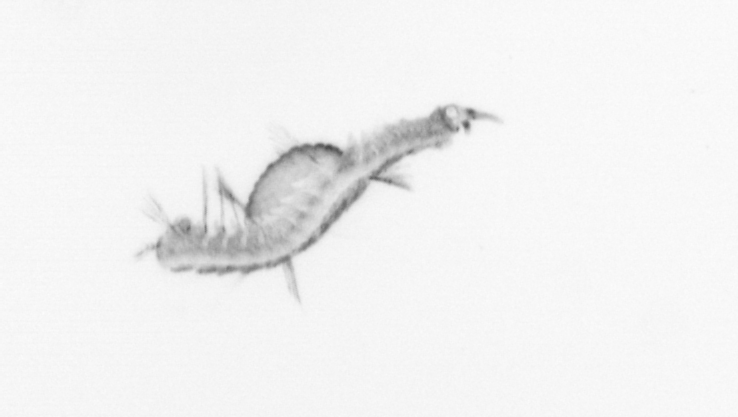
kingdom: Animalia
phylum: Annelida
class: Polychaeta
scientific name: Polychaeta
